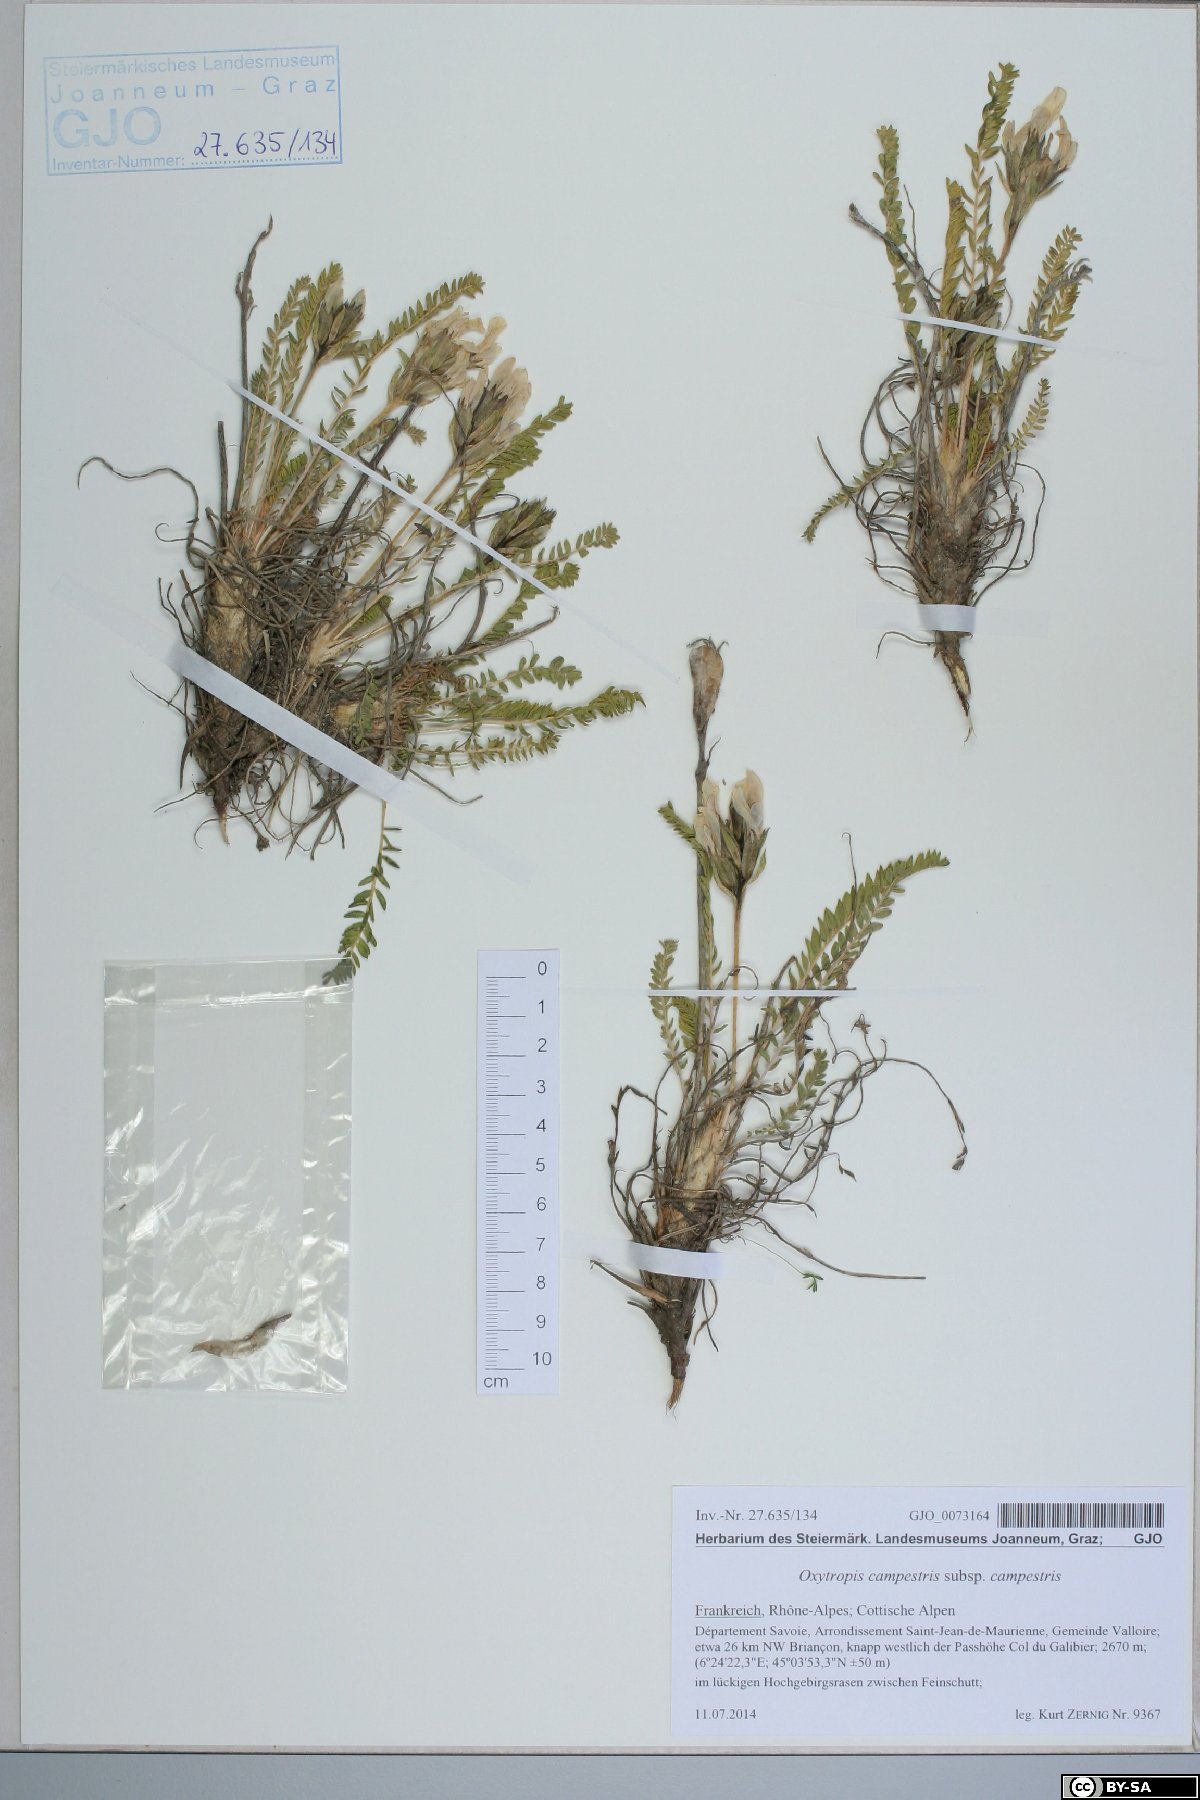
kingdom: Plantae
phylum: Tracheophyta
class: Magnoliopsida
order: Fabales
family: Fabaceae
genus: Oxytropis
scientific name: Oxytropis campestris
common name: Field locoweed
